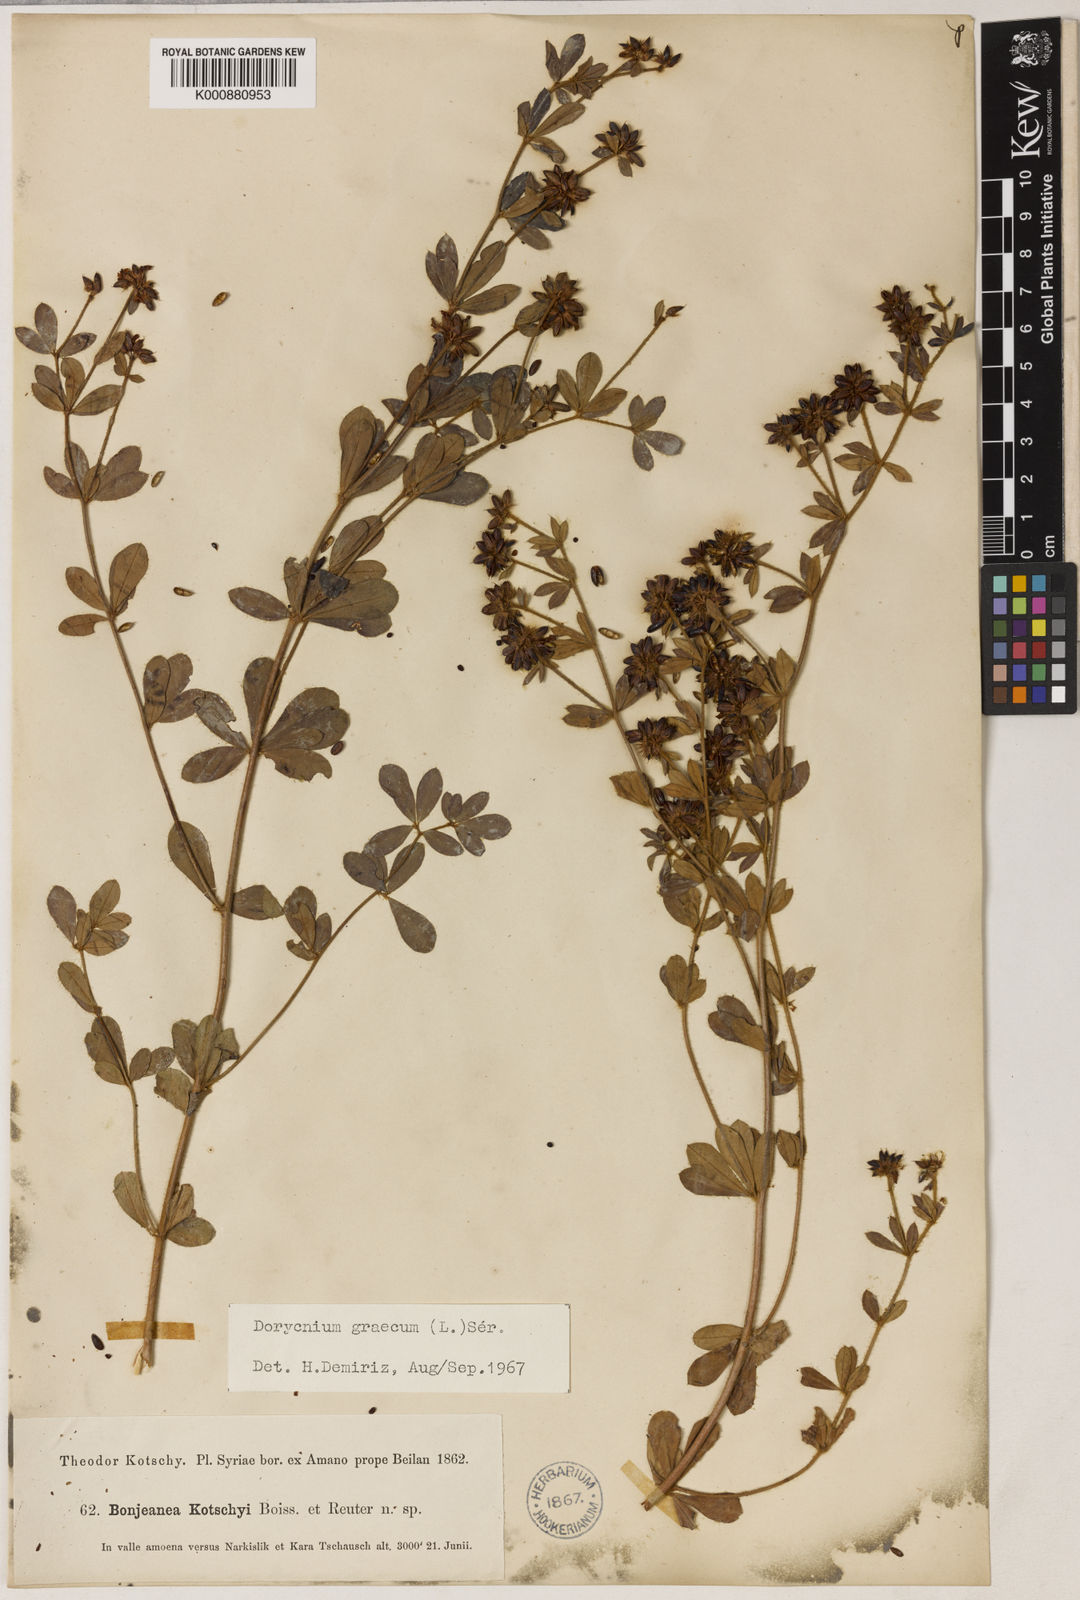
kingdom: Plantae
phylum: Tracheophyta
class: Magnoliopsida
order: Fabales
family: Fabaceae
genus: Lotus
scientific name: Lotus graecus
